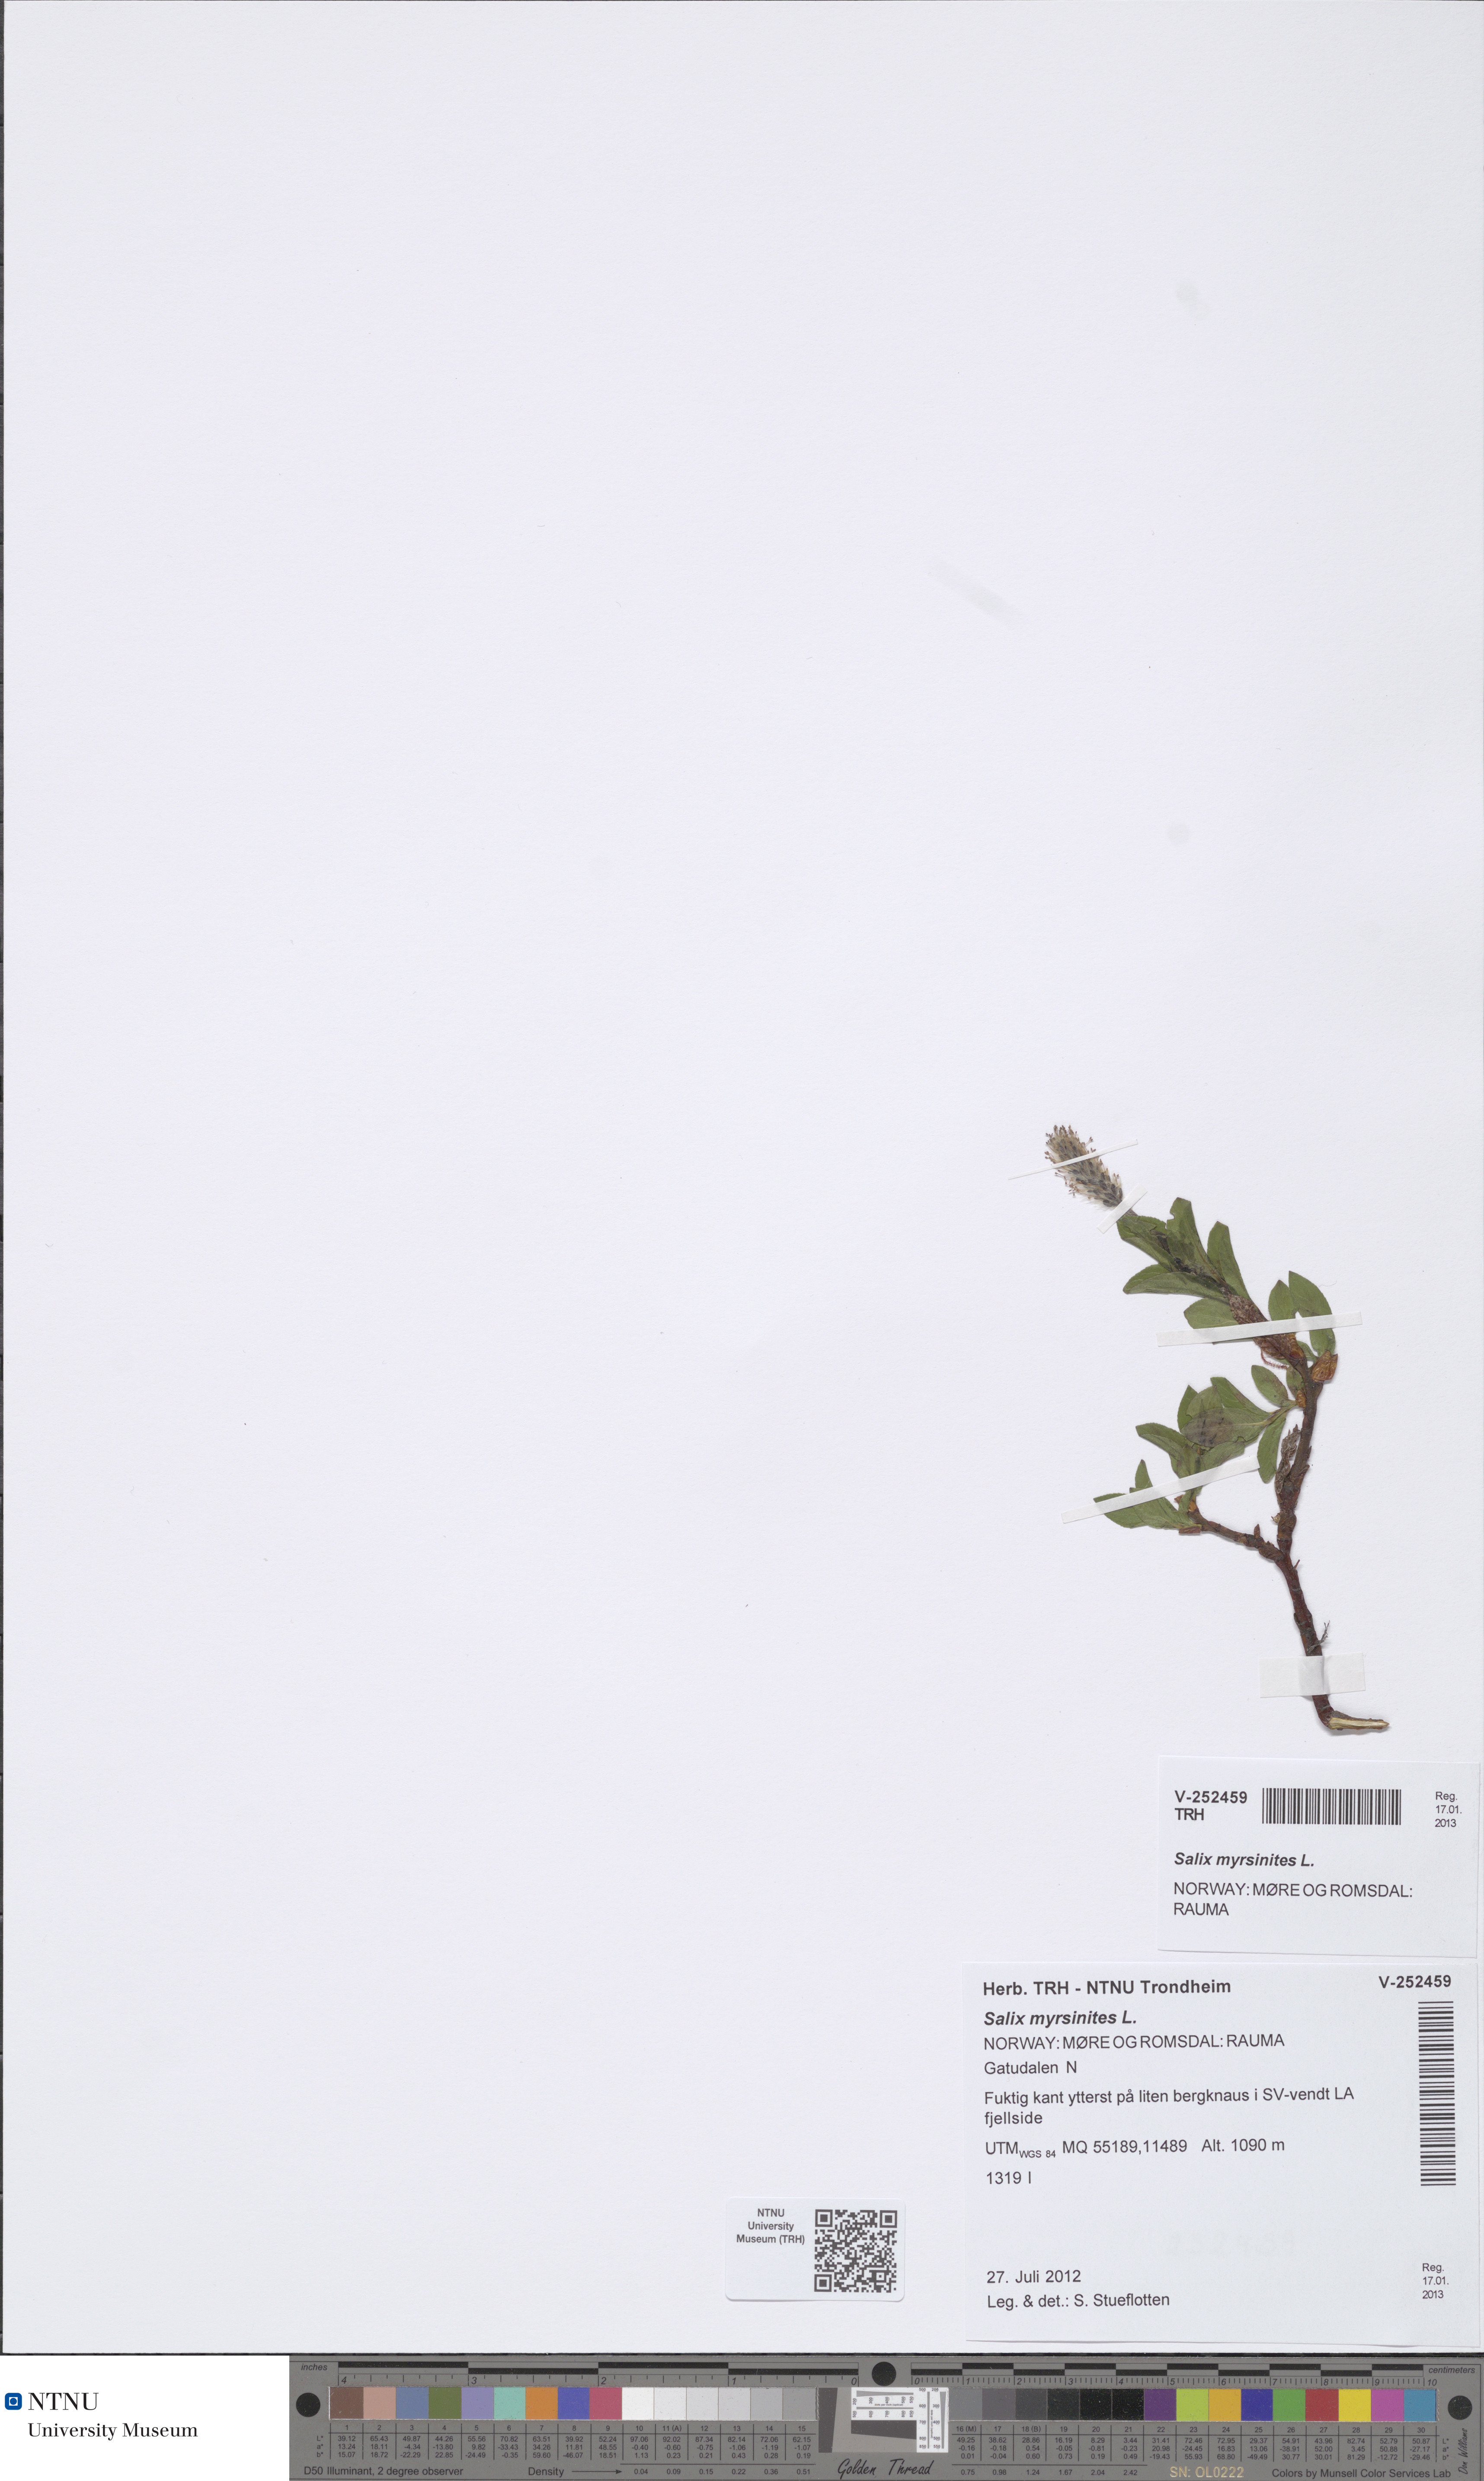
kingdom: Plantae
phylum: Tracheophyta
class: Magnoliopsida
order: Malpighiales
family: Salicaceae
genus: Salix
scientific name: Salix myrsinites
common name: Myrtle willow
